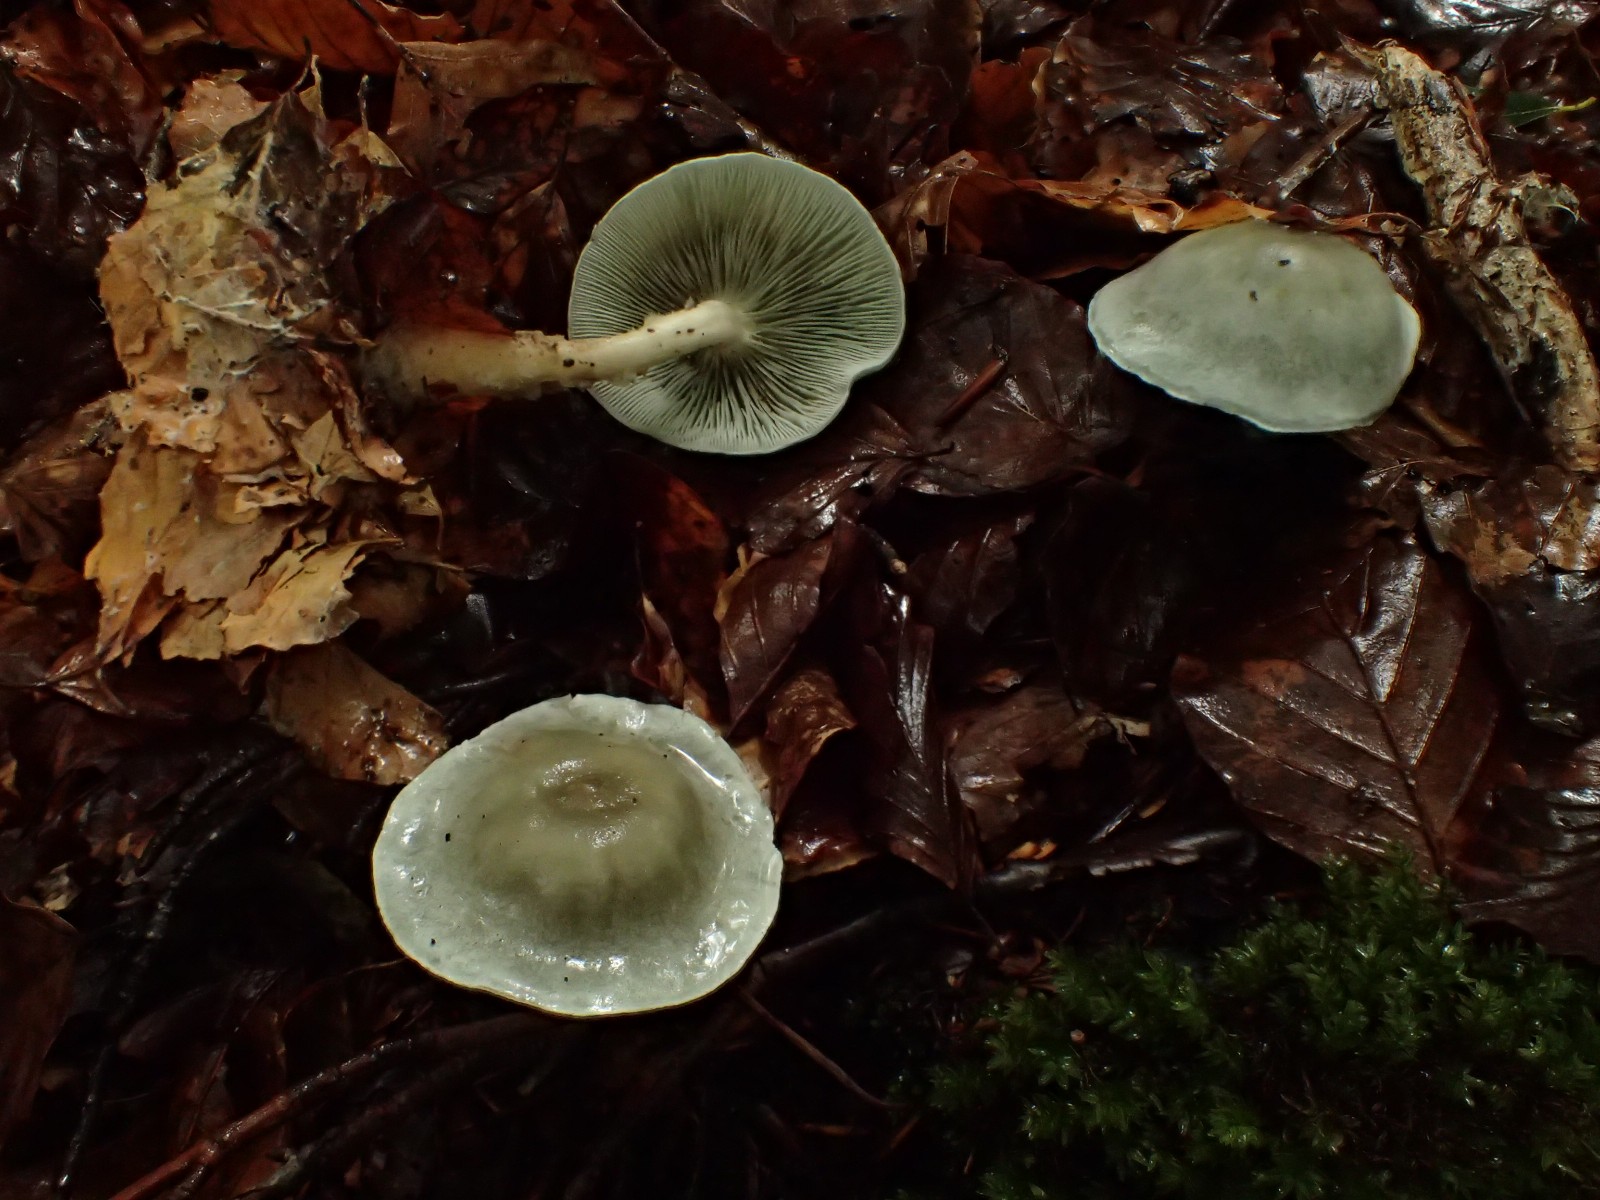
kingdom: Fungi
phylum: Basidiomycota
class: Agaricomycetes
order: Agaricales
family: Tricholomataceae
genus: Clitocybe
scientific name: Clitocybe odora
